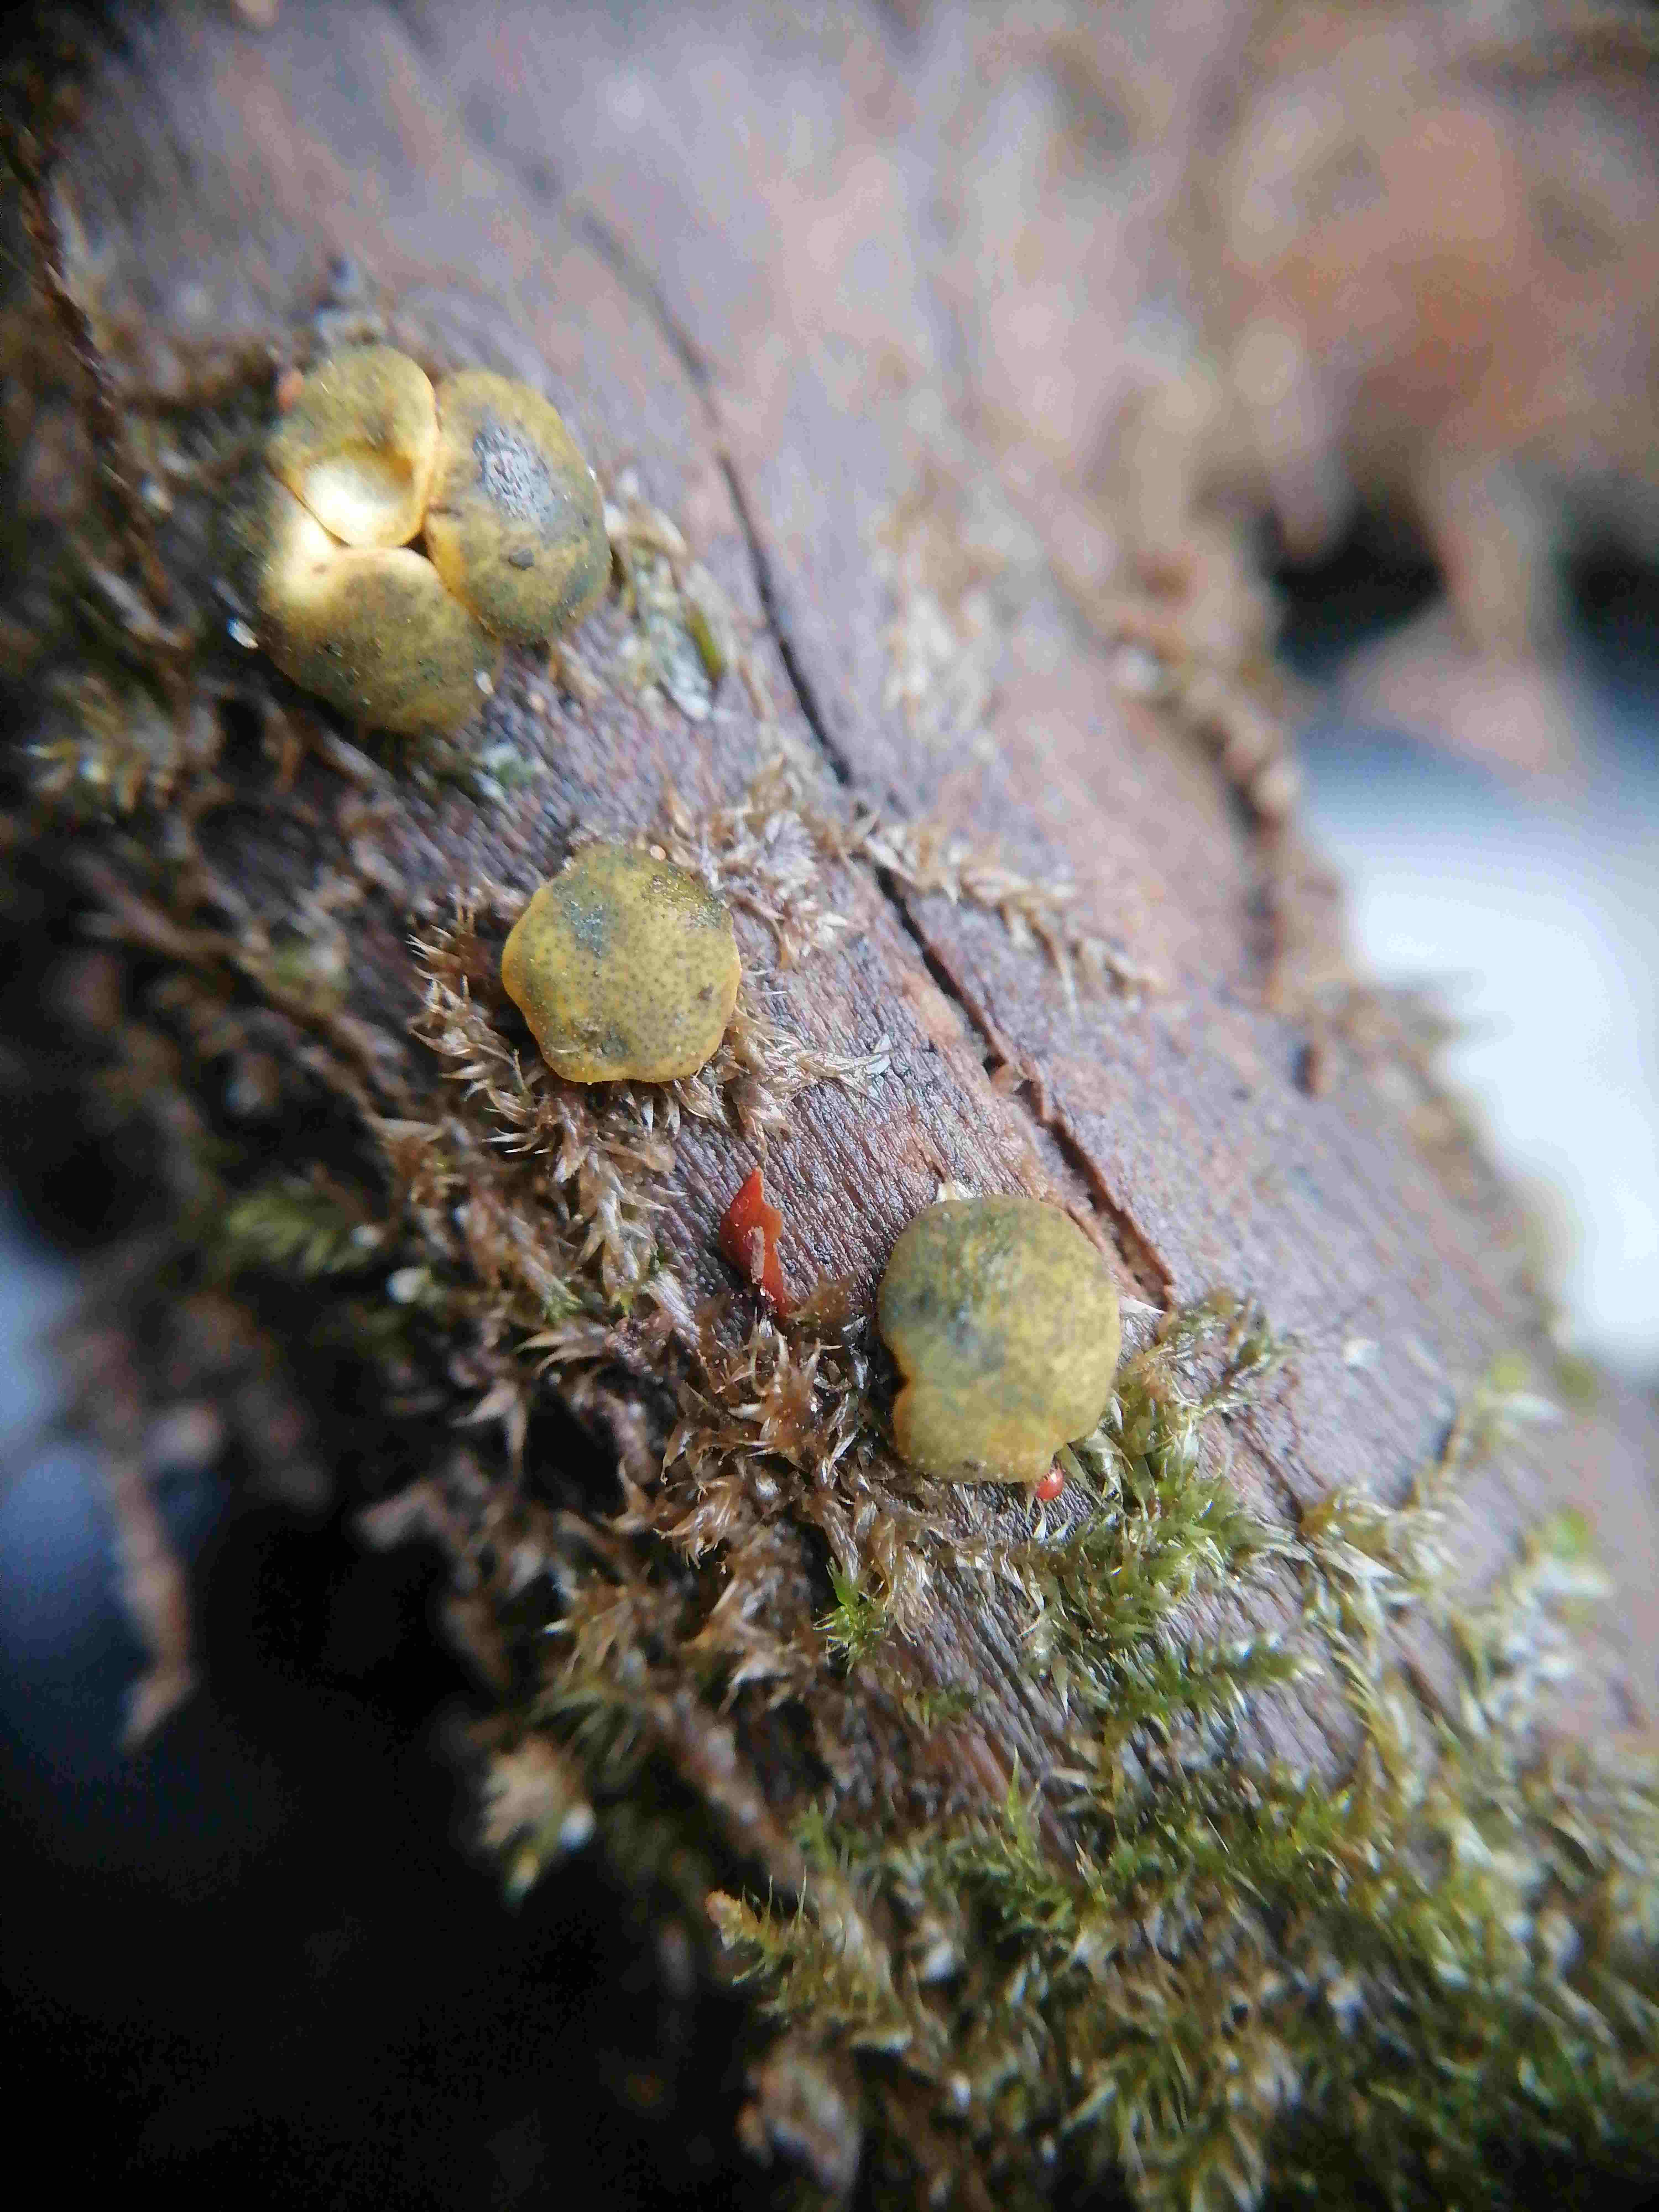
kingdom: Fungi
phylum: Ascomycota
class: Sordariomycetes
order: Hypocreales
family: Hypocreaceae
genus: Trichoderma
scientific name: Trichoderma aureoviride
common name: æggegul kødkerne
